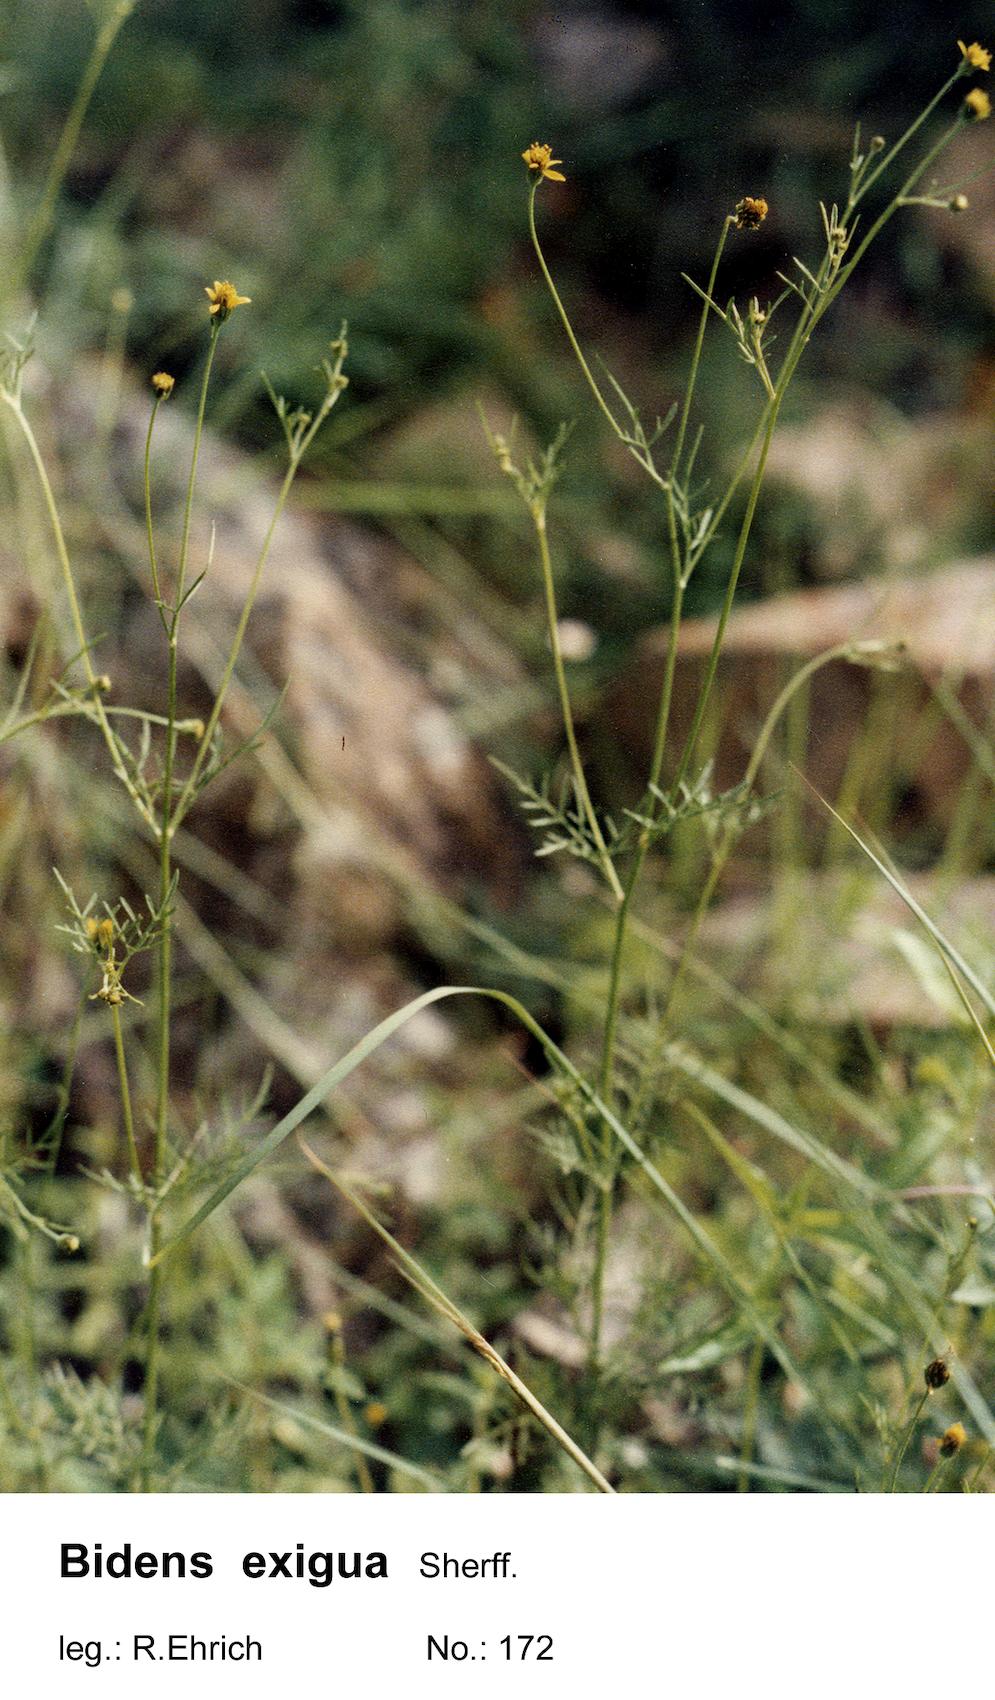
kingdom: Plantae
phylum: Tracheophyta
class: Magnoliopsida
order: Asterales
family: Asteraceae
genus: Bidens
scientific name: Bidens exigua
